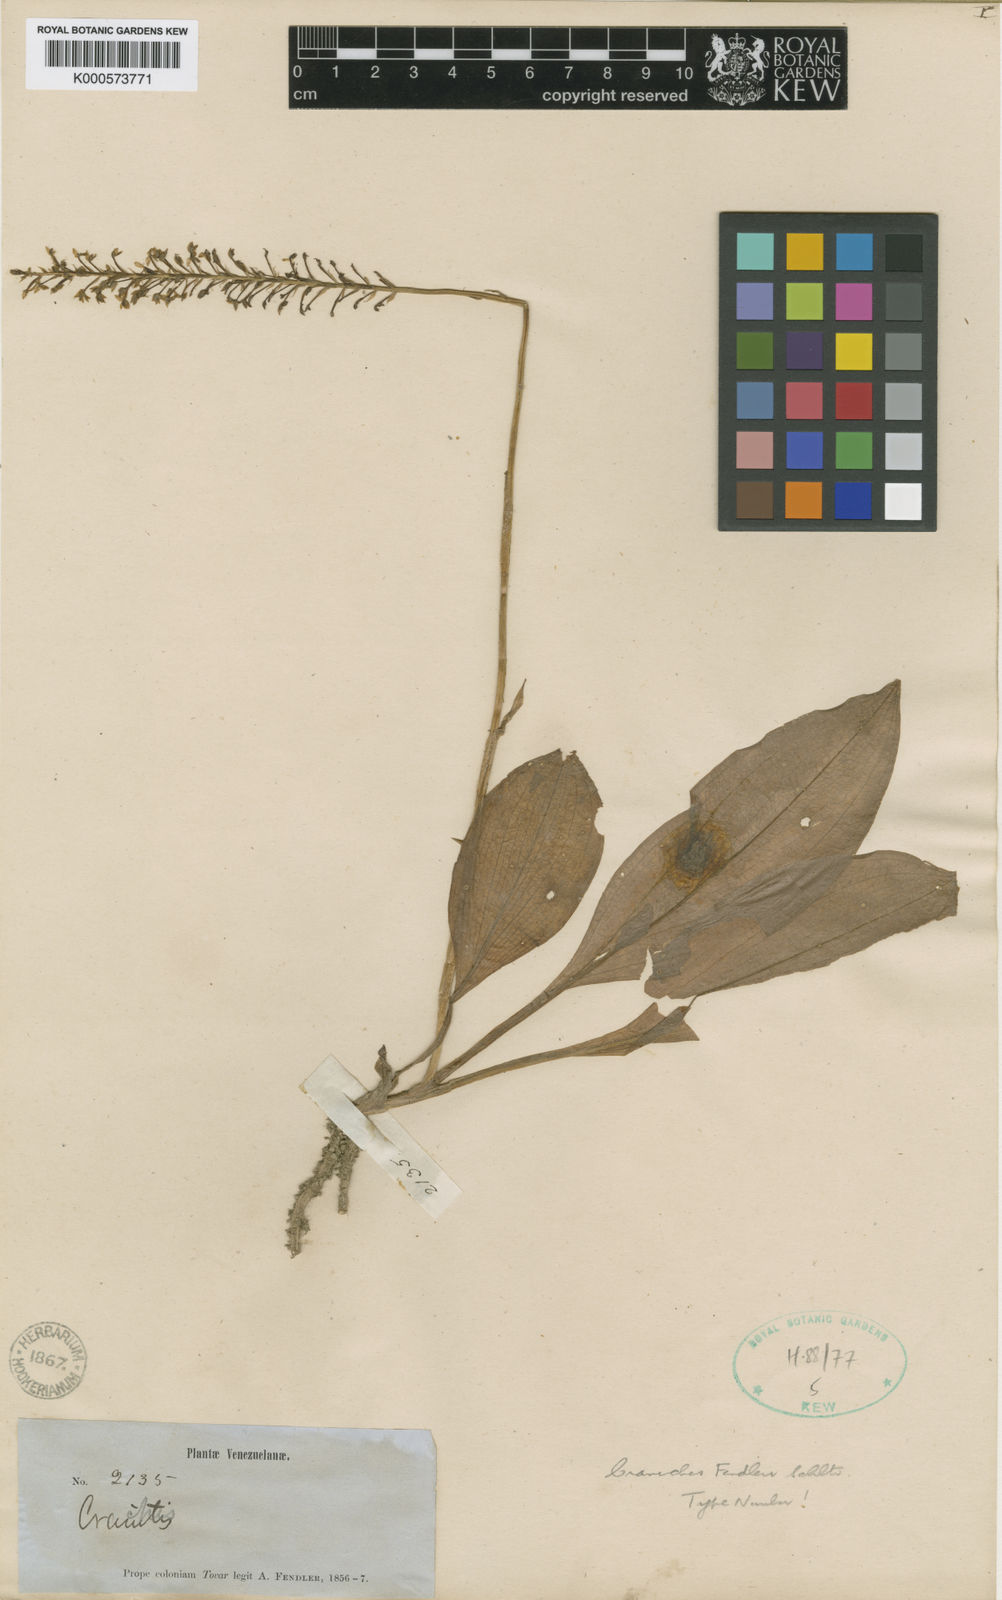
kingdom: Plantae
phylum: Tracheophyta
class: Liliopsida
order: Asparagales
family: Orchidaceae
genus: Cranichis
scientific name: Cranichis fendleri
